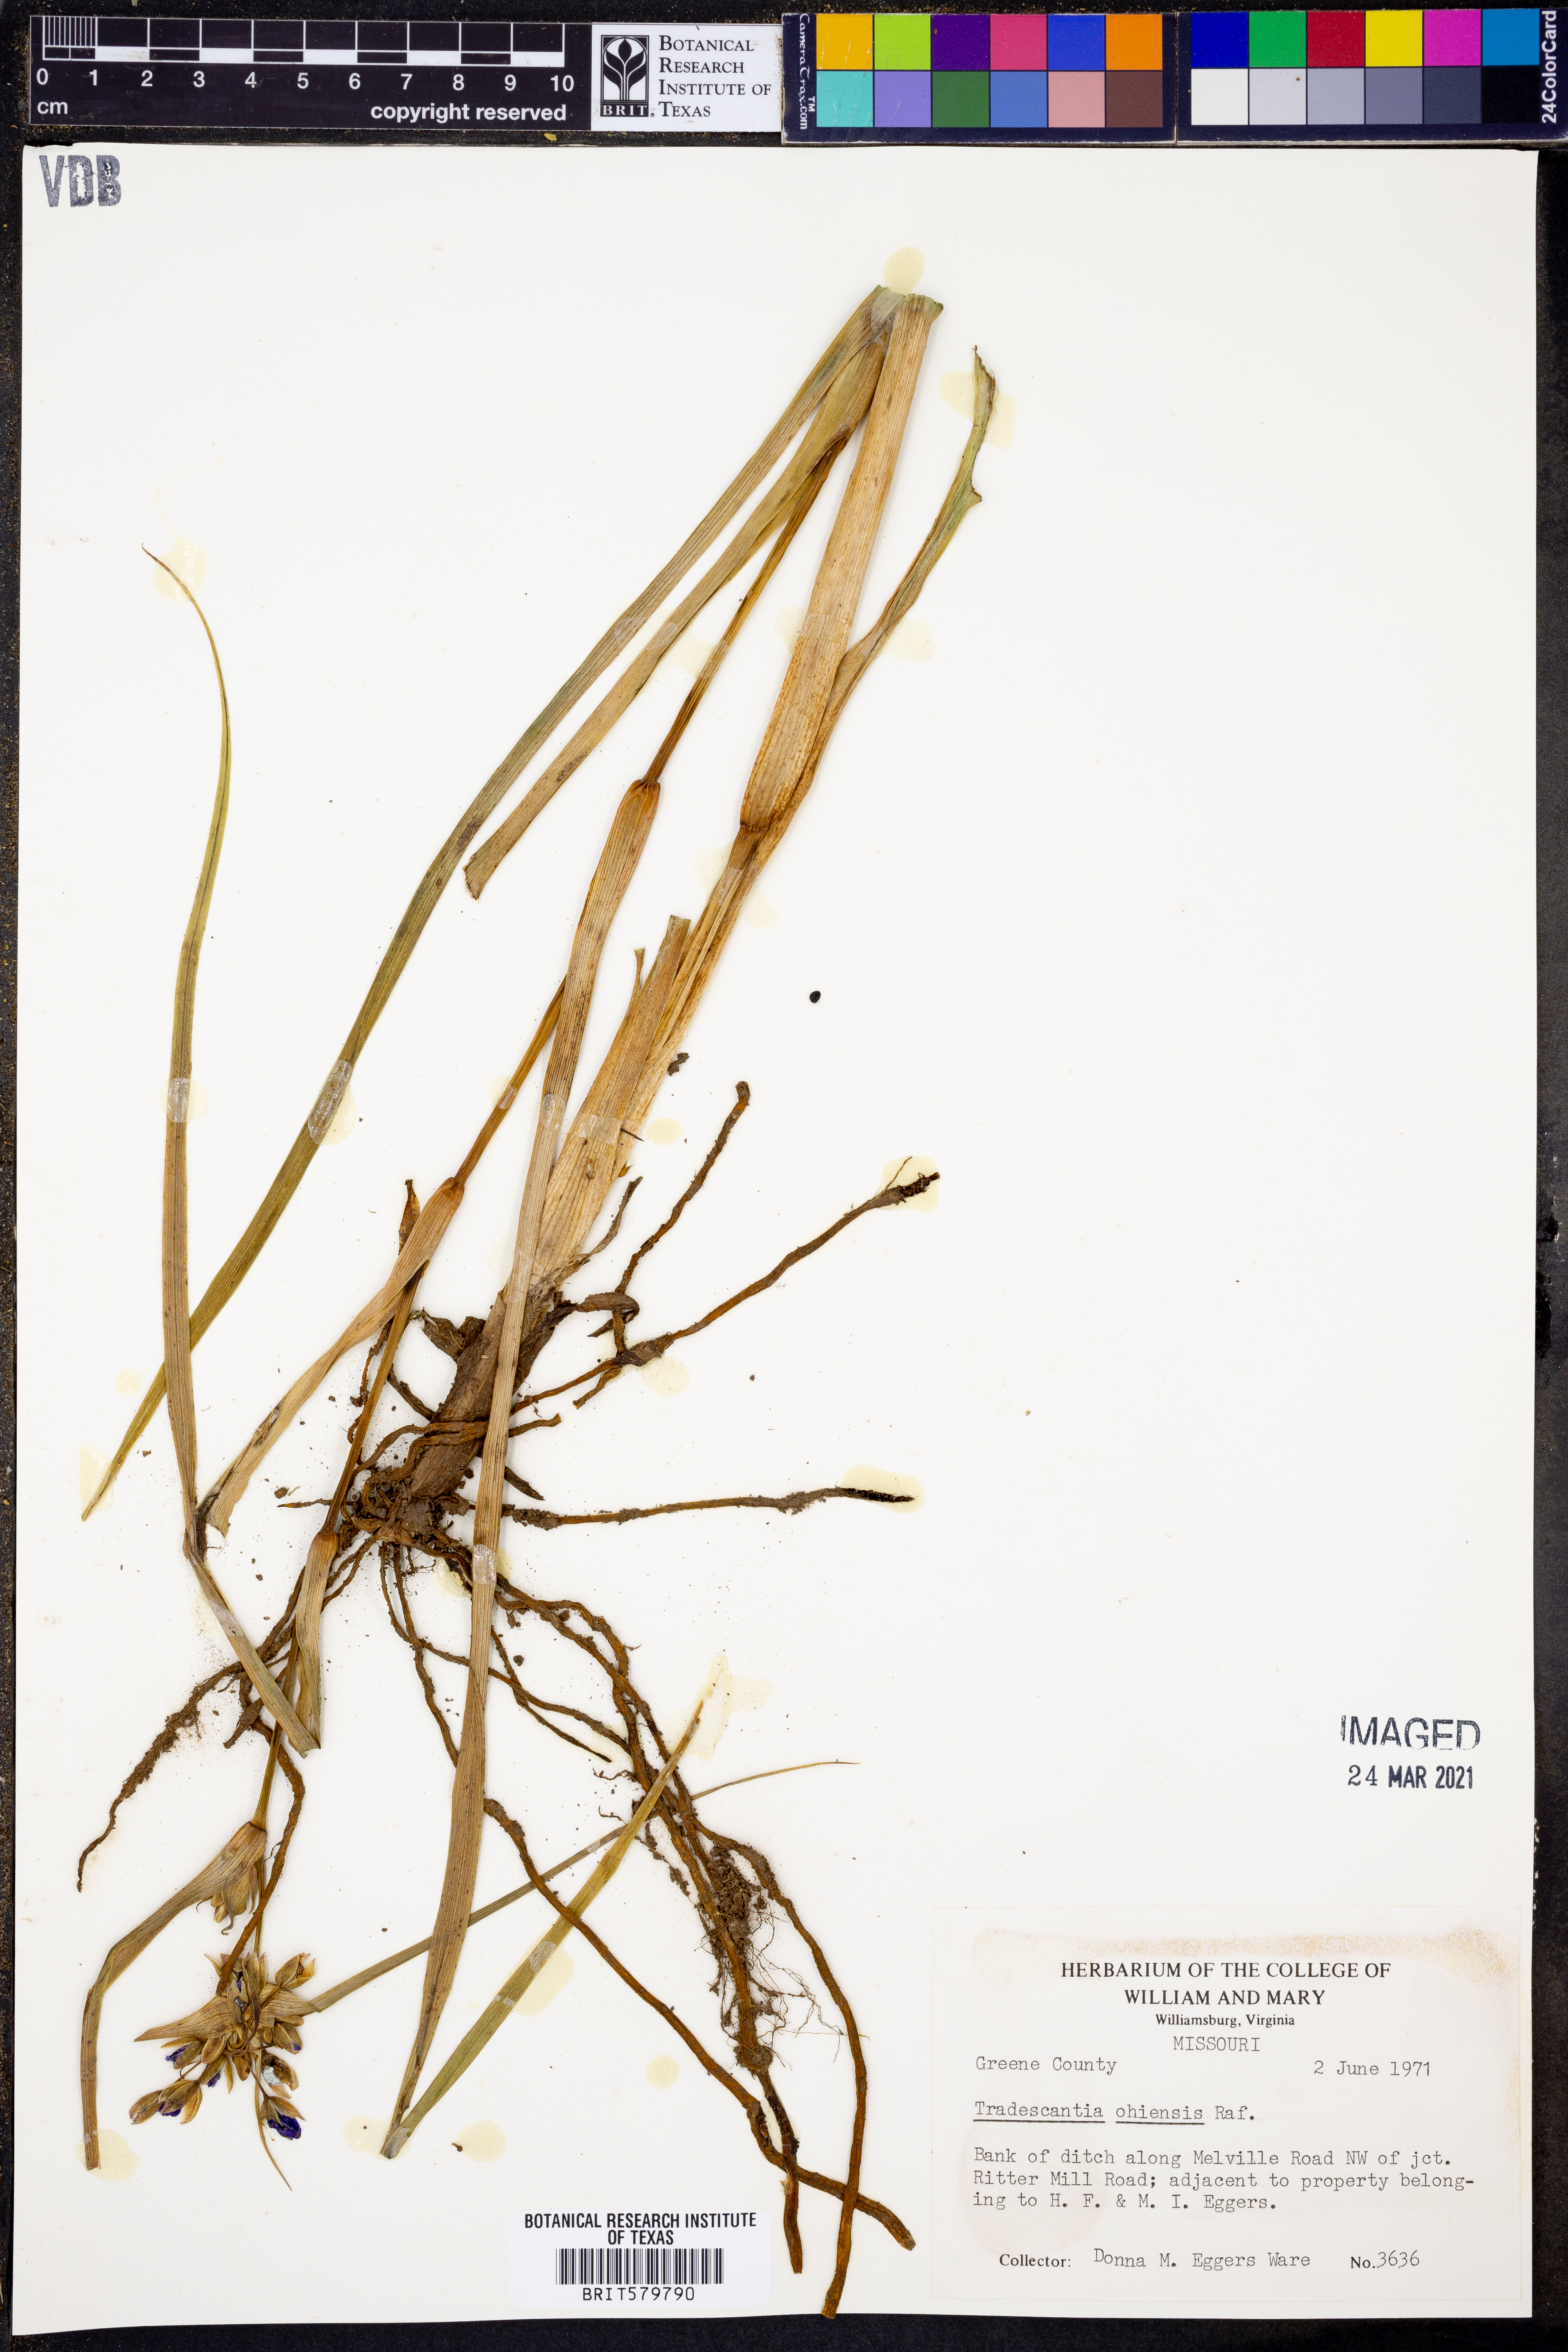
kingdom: Plantae
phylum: Tracheophyta
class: Liliopsida
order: Commelinales
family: Commelinaceae
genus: Tradescantia
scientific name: Tradescantia ohiensis
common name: Ohio spiderwort
